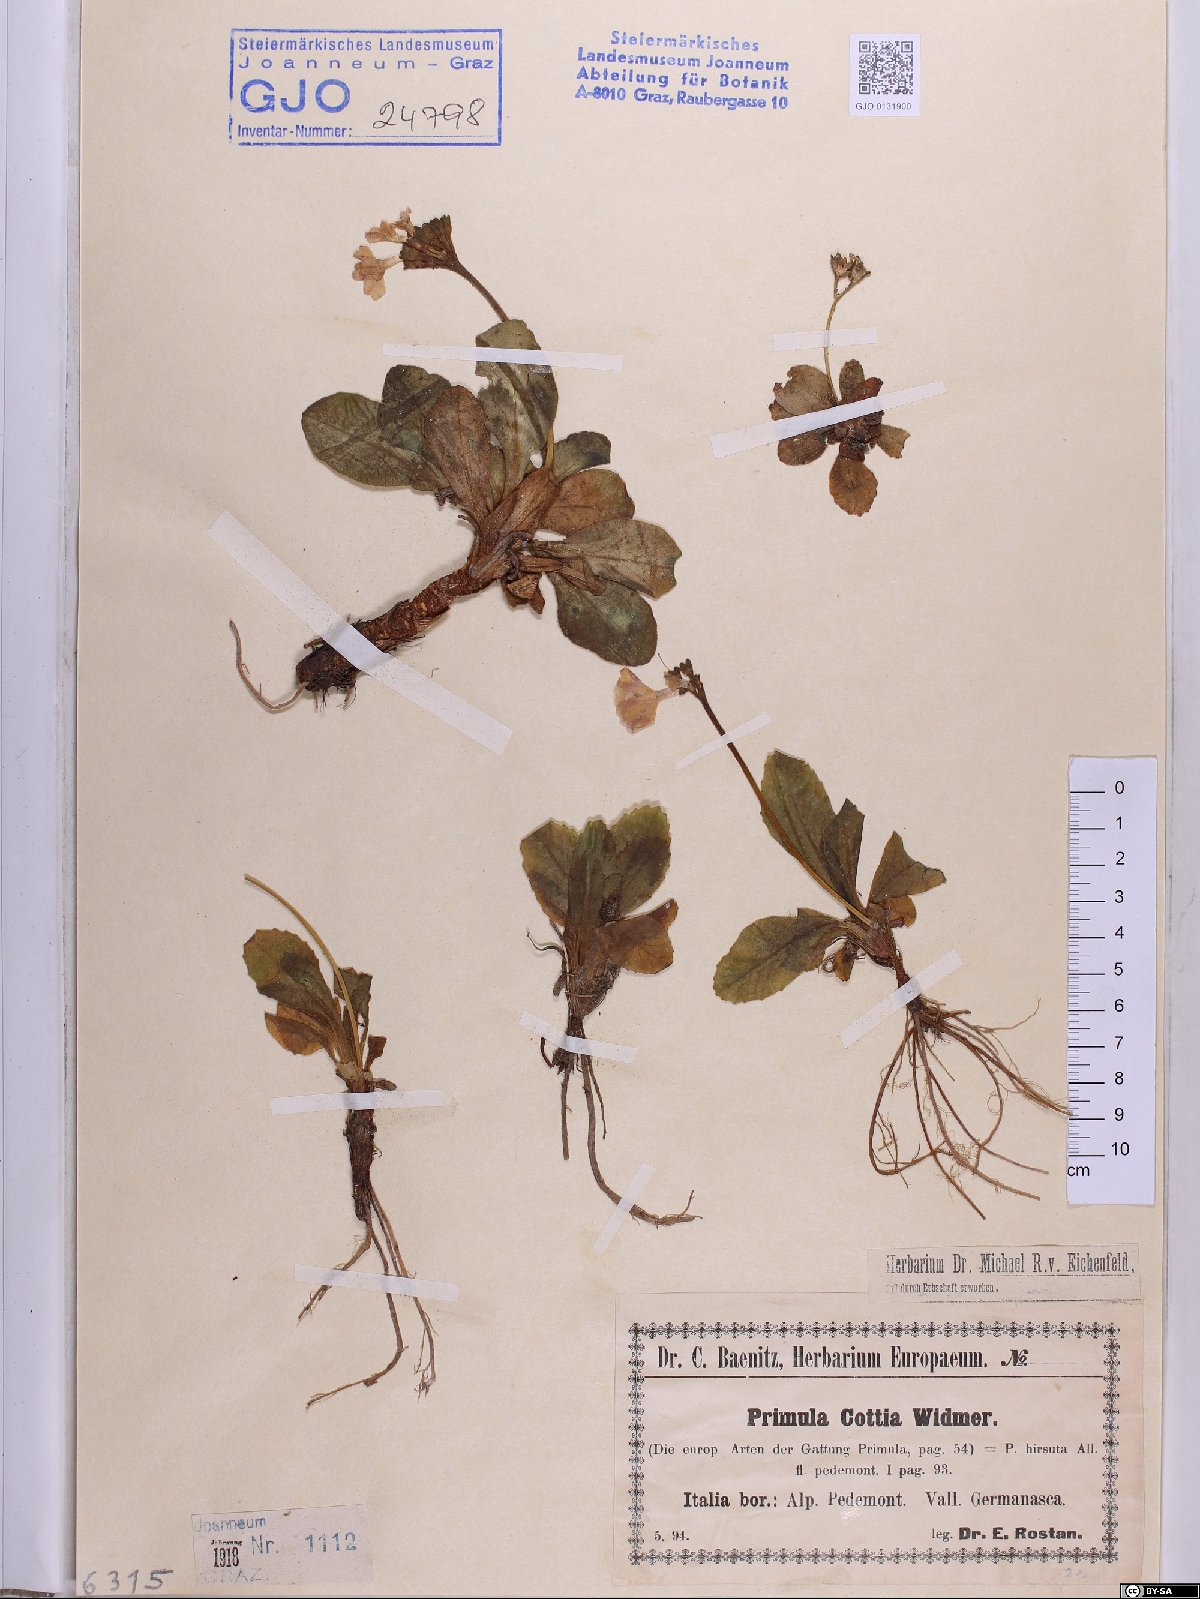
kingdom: Plantae
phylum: Tracheophyta
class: Magnoliopsida
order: Ericales
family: Primulaceae
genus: Primula
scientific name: Primula villosa
